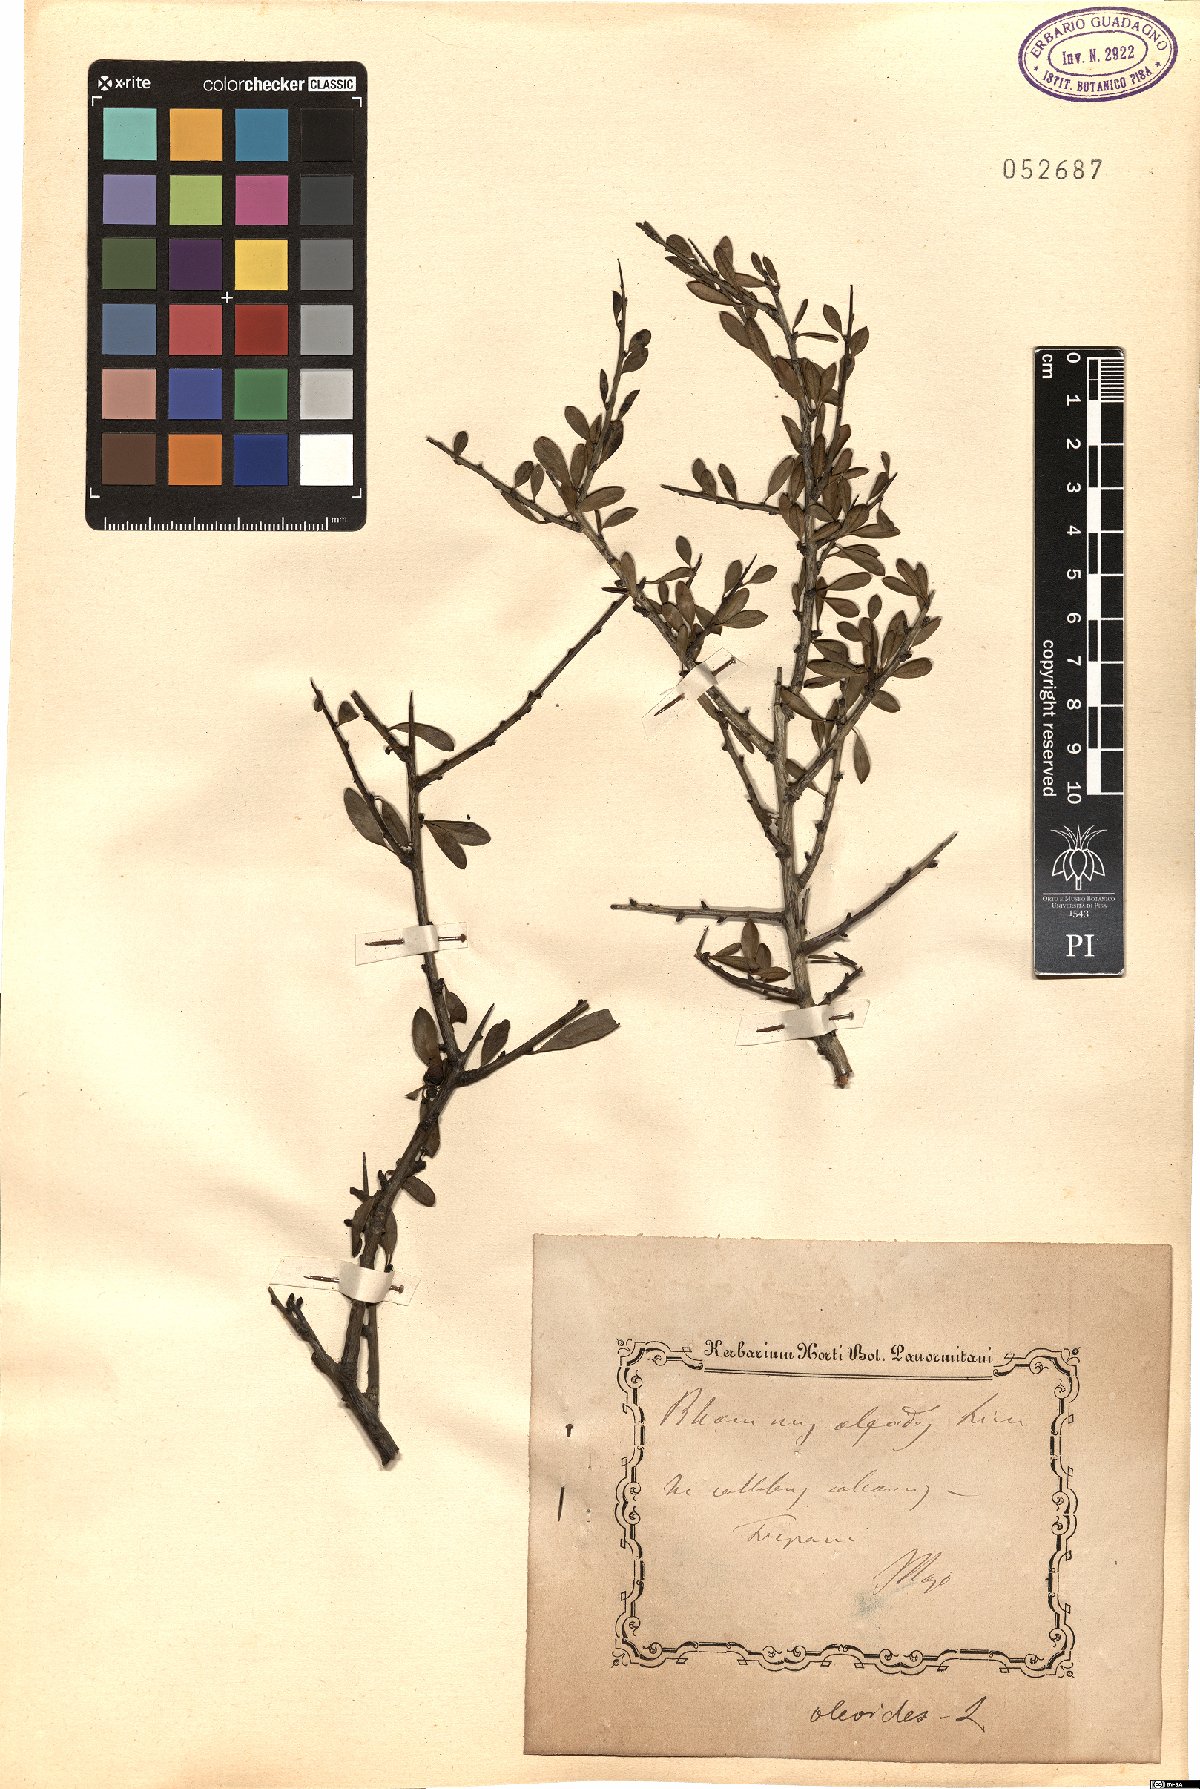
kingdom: Plantae
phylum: Tracheophyta
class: Magnoliopsida
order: Rosales
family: Rhamnaceae
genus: Rhamnus
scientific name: Rhamnus oleoides
